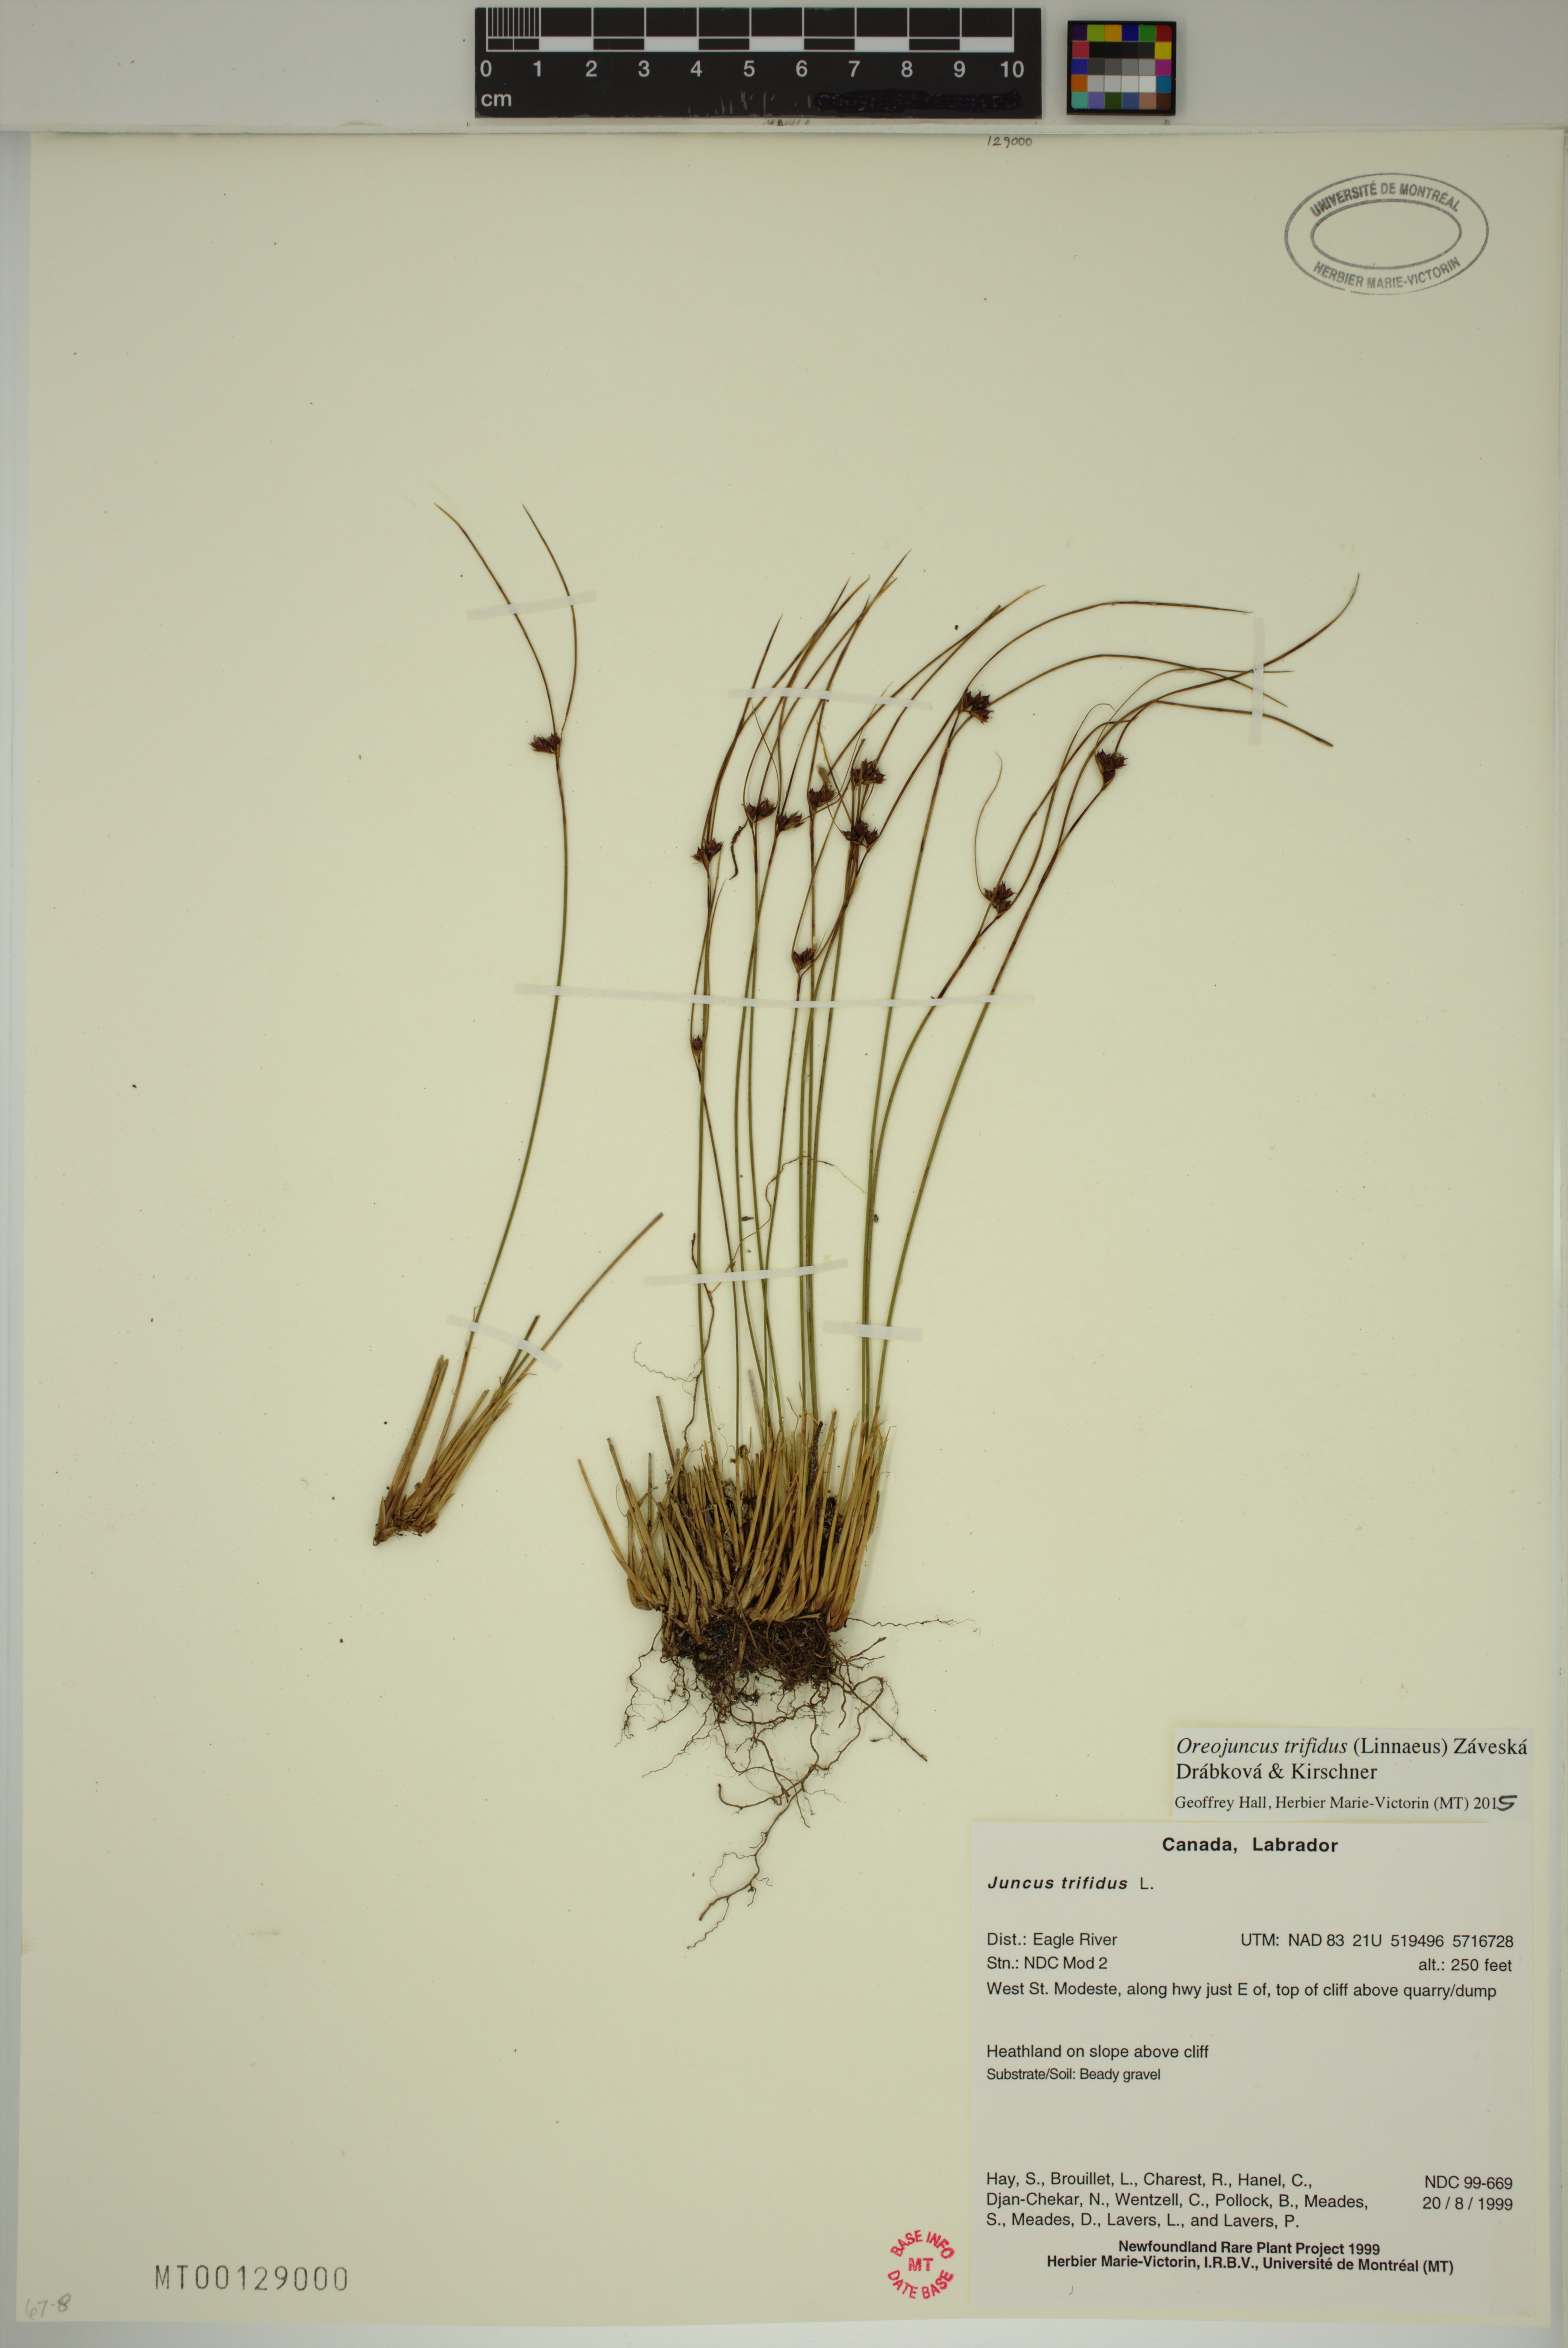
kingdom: Plantae
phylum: Tracheophyta
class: Liliopsida
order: Poales
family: Juncaceae
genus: Oreojuncus
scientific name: Oreojuncus trifidus
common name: Highland rush
